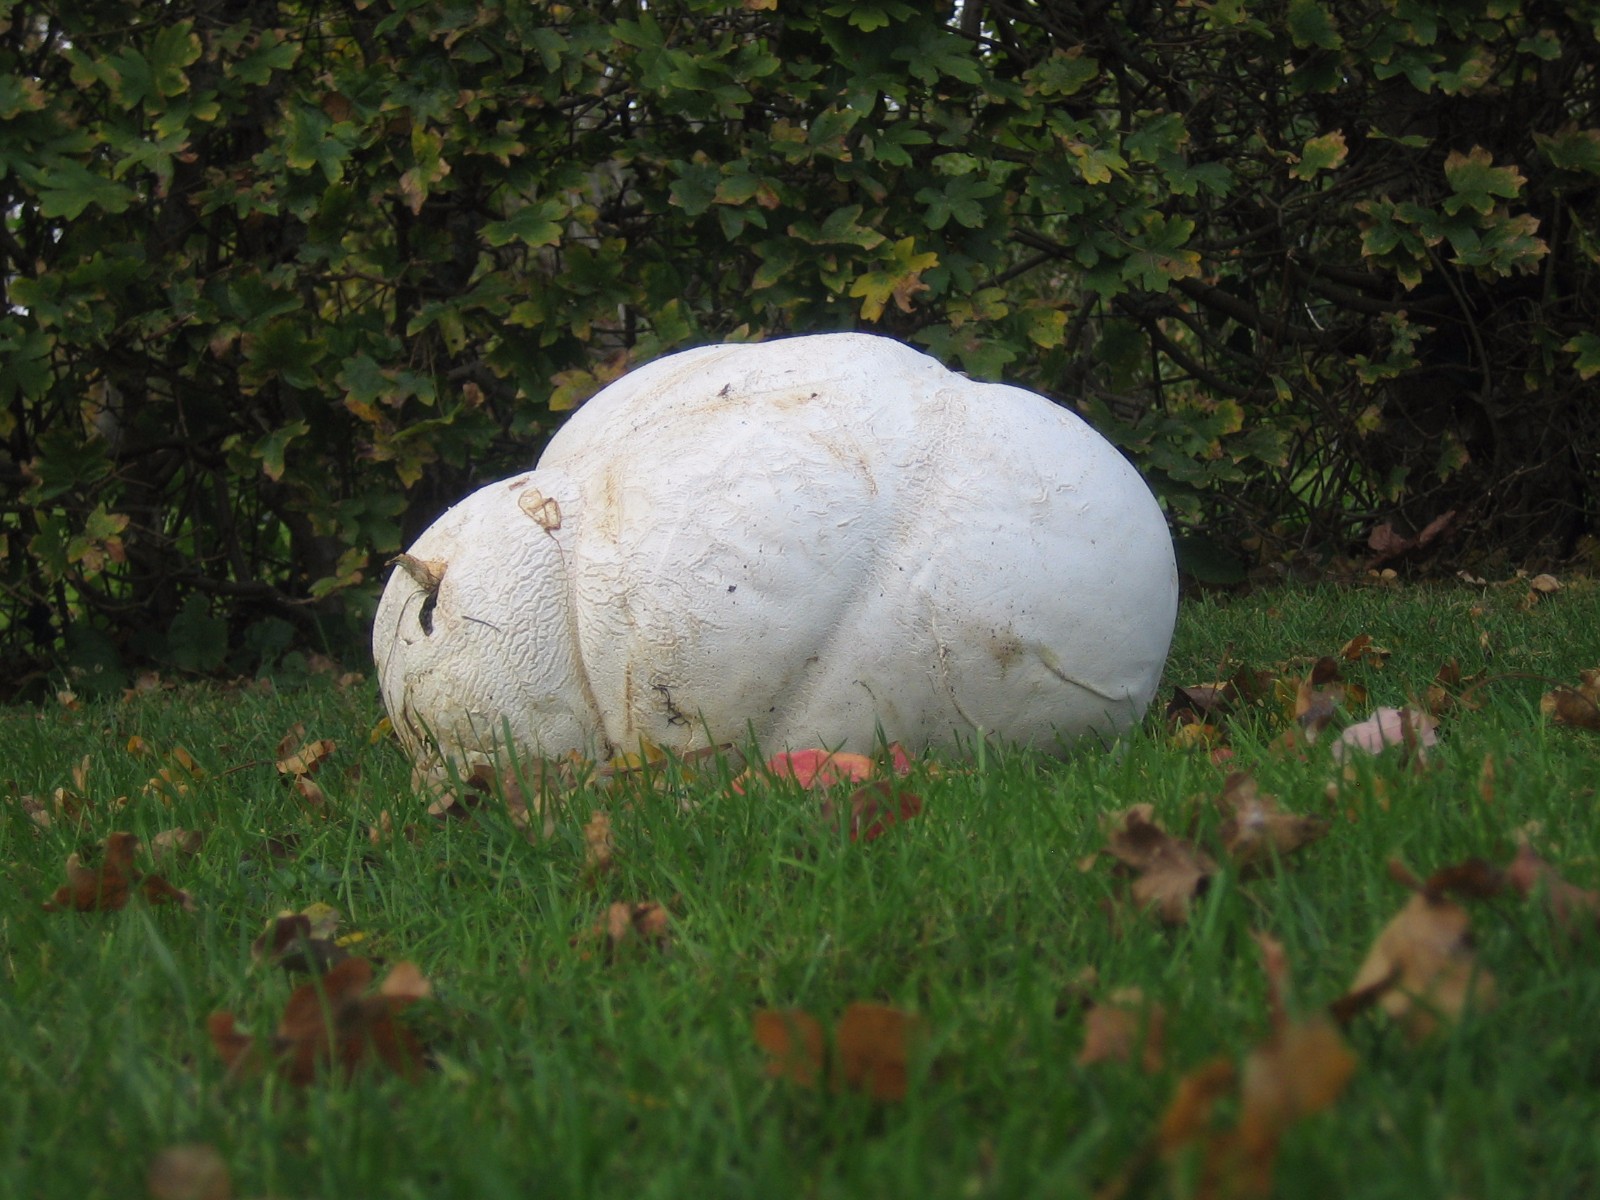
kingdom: Fungi
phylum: Basidiomycota
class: Agaricomycetes
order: Agaricales
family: Lycoperdaceae
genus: Calvatia
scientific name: Calvatia gigantea
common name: kæmpestøvbold
